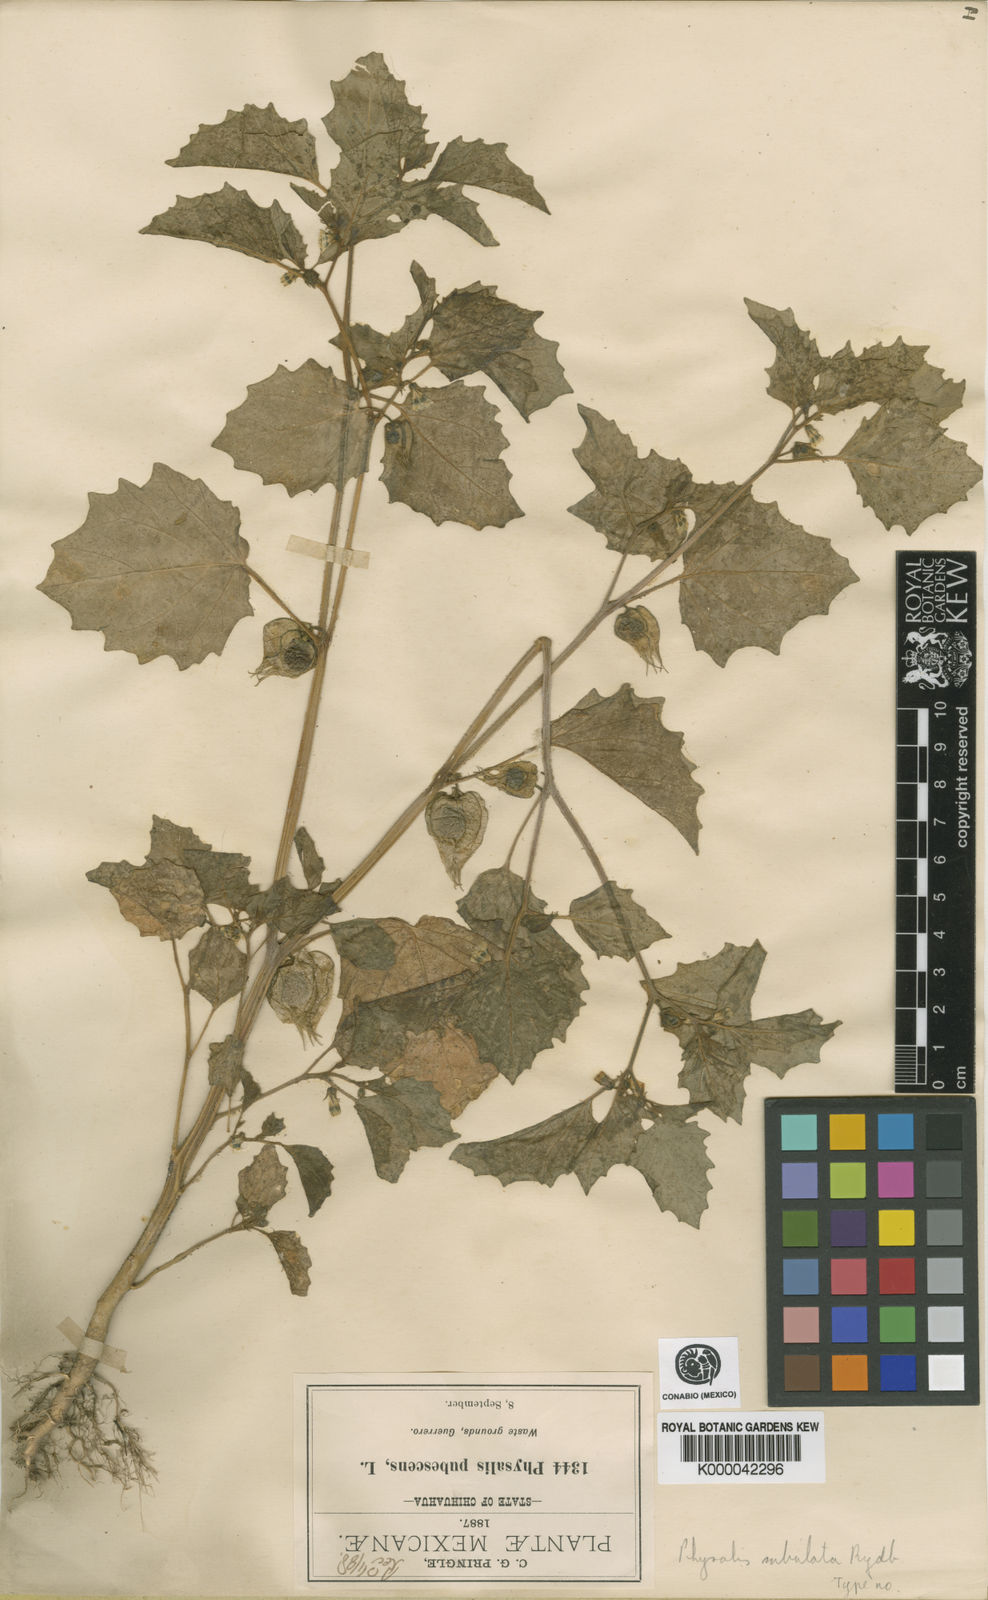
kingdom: Plantae
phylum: Tracheophyta
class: Magnoliopsida
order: Solanales
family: Solanaceae
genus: Physalis
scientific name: Physalis pubescens
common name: Downy ground-cherry
